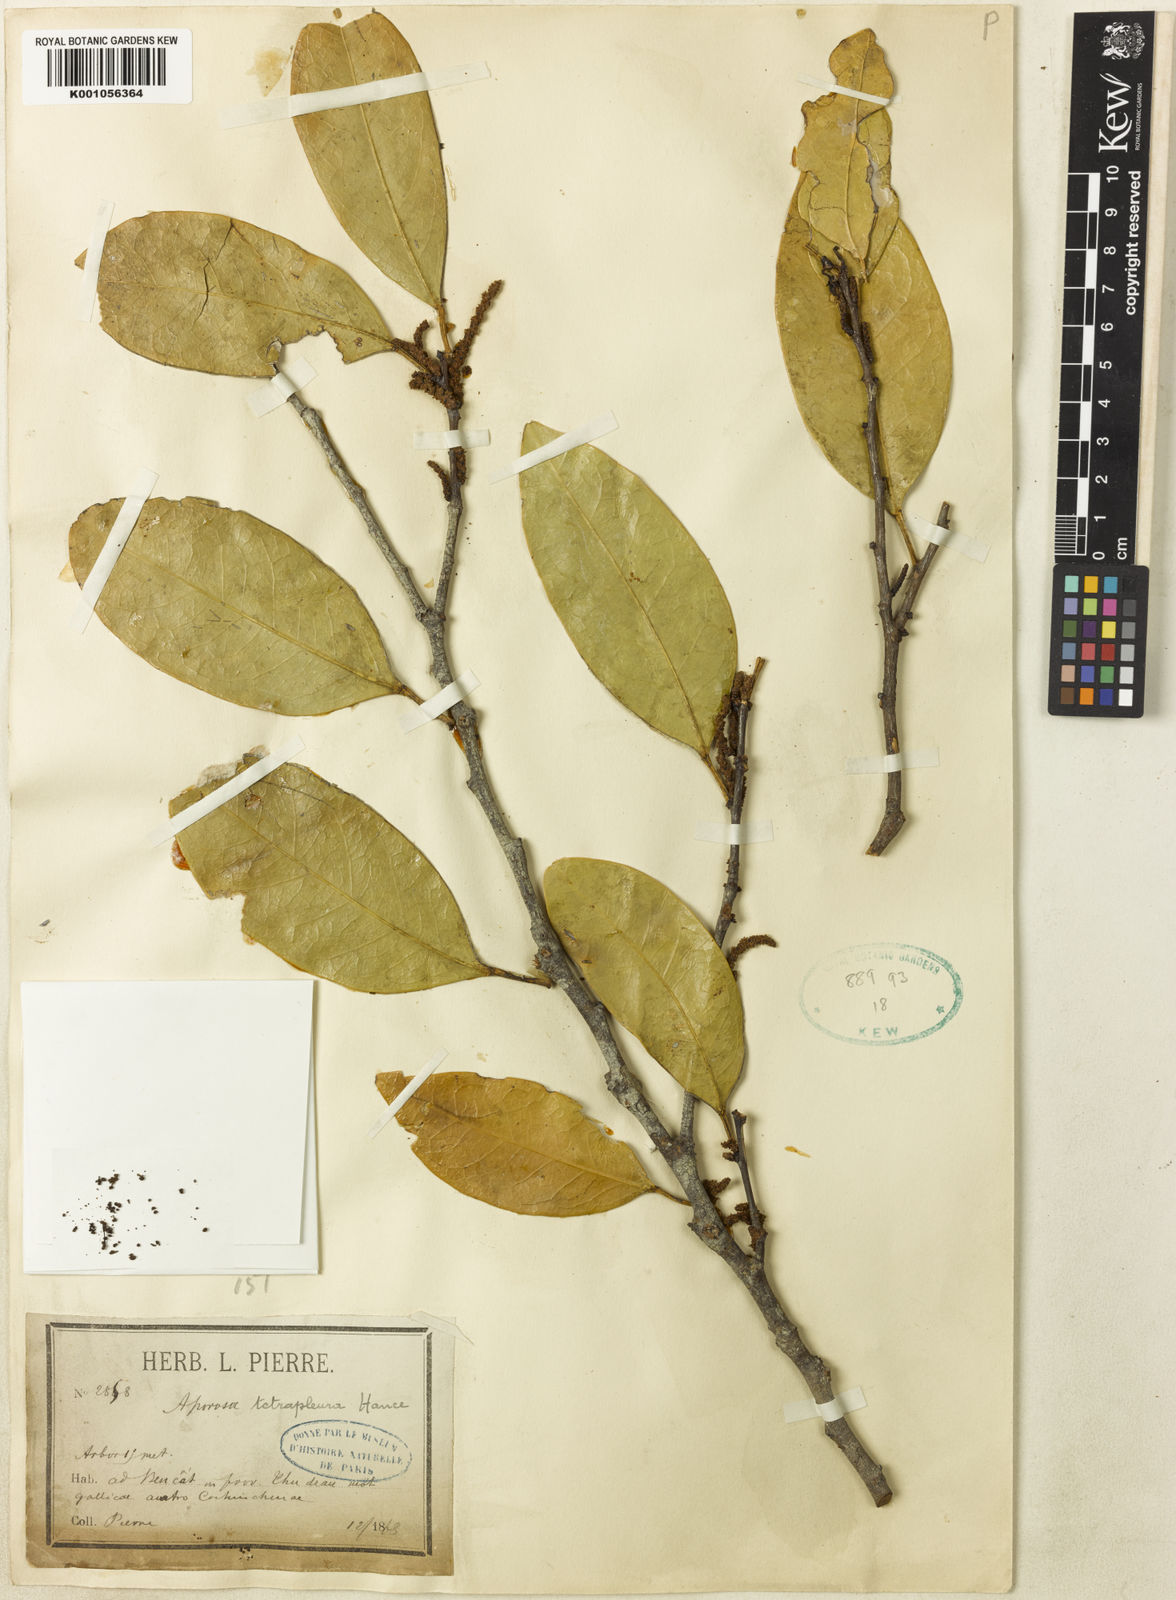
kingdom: Plantae
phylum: Tracheophyta
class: Magnoliopsida
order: Malpighiales
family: Phyllanthaceae
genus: Aporosa
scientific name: Aporosa tetrapleura
